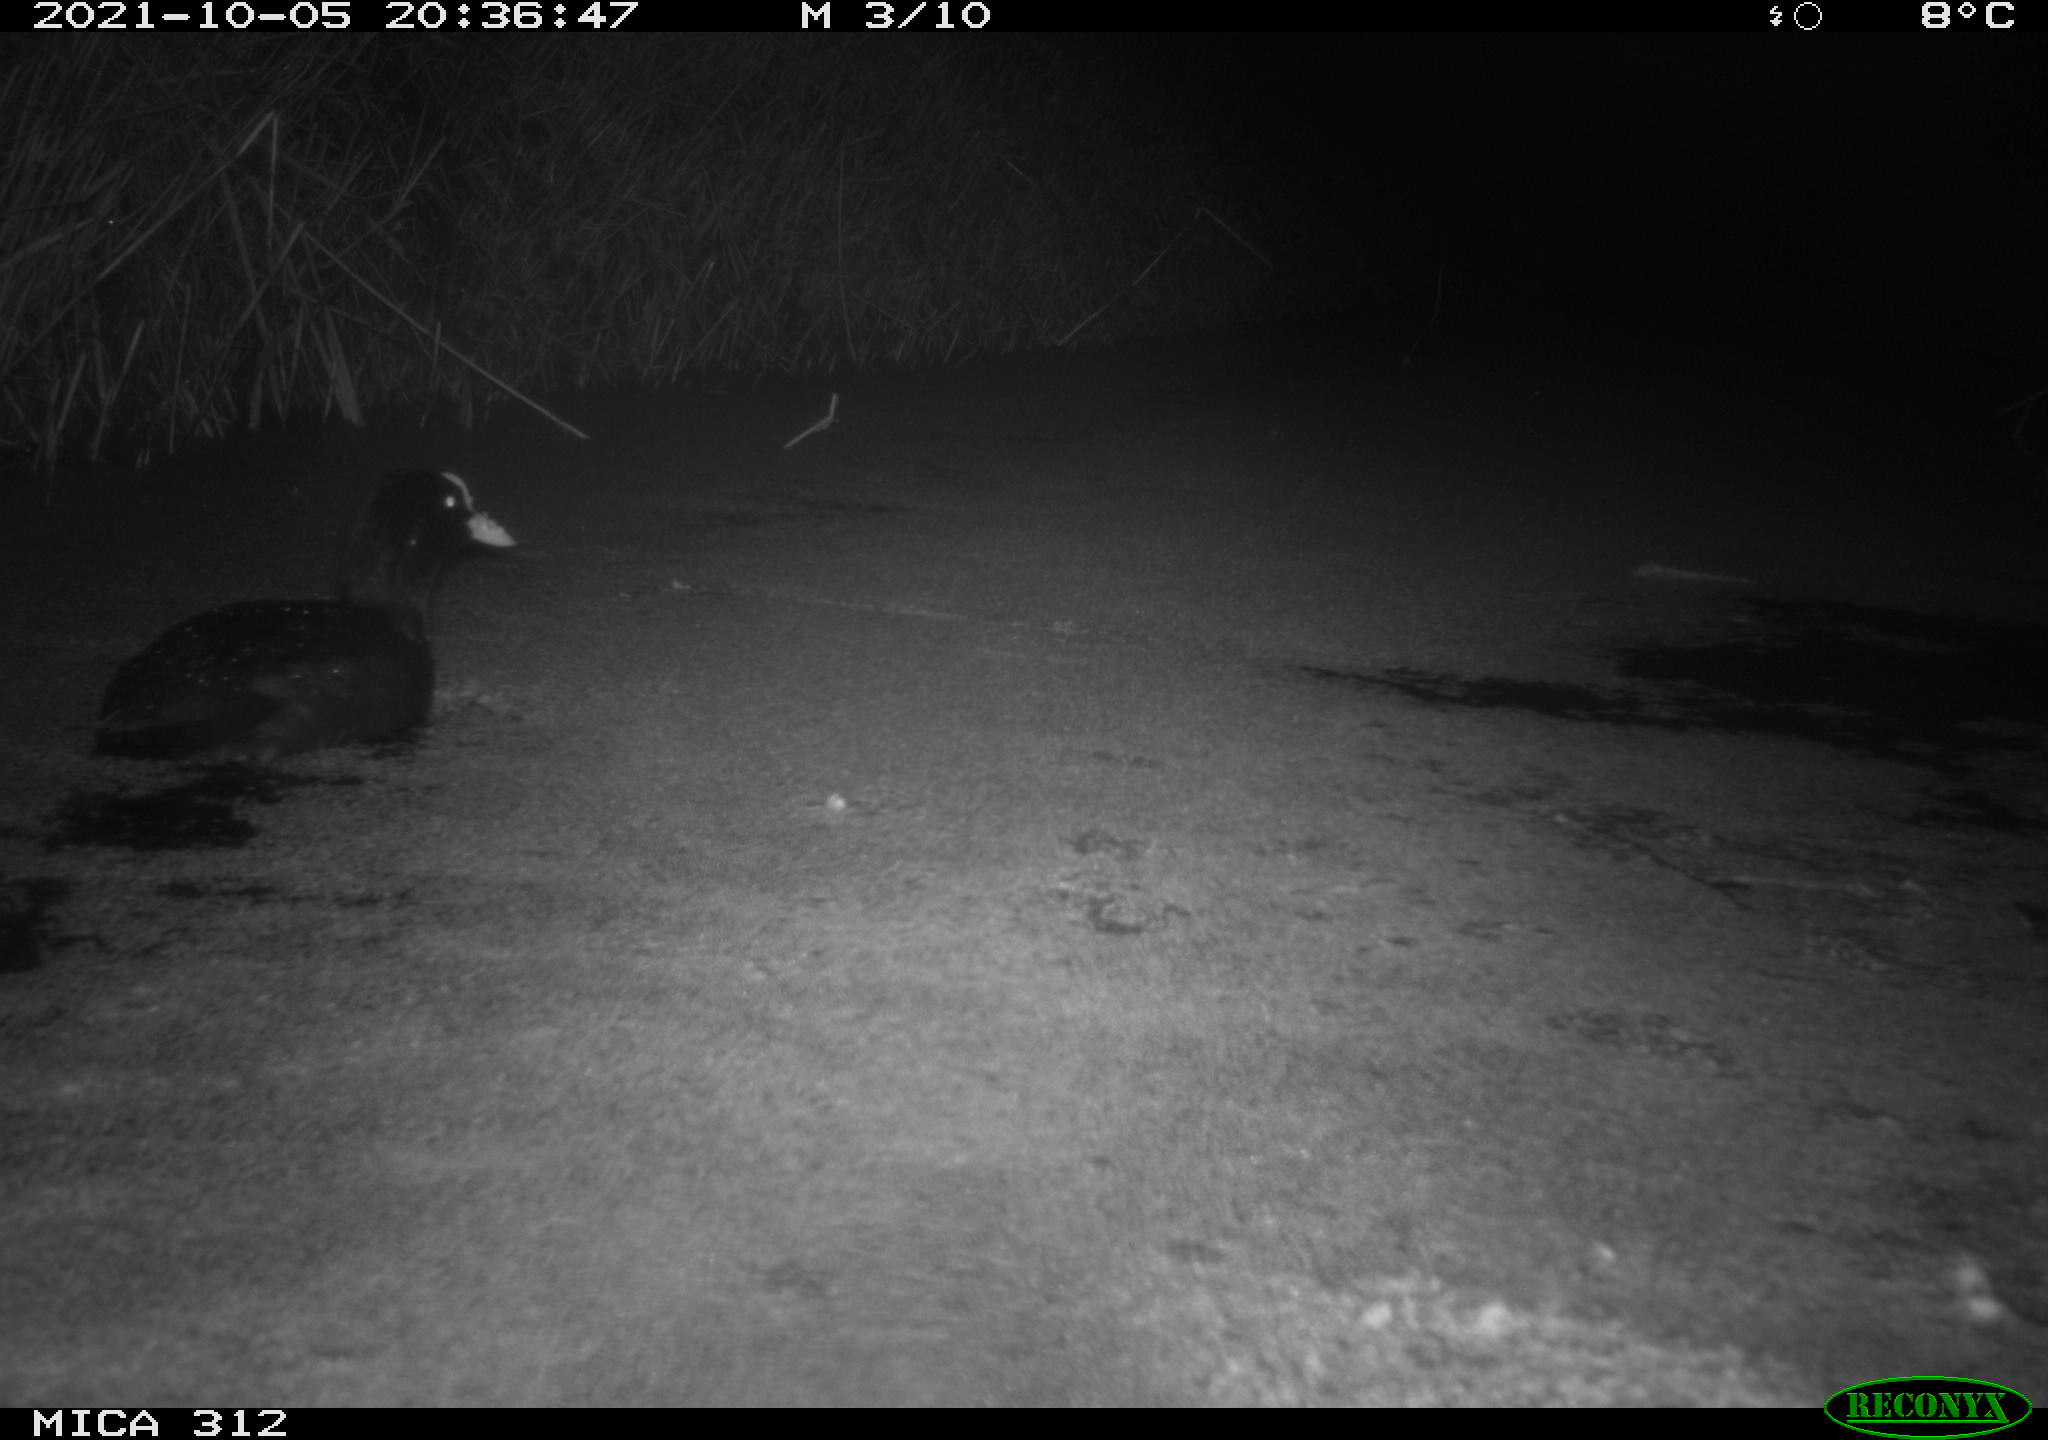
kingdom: Animalia
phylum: Chordata
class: Aves
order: Gruiformes
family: Rallidae
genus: Fulica
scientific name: Fulica atra
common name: Eurasian coot
